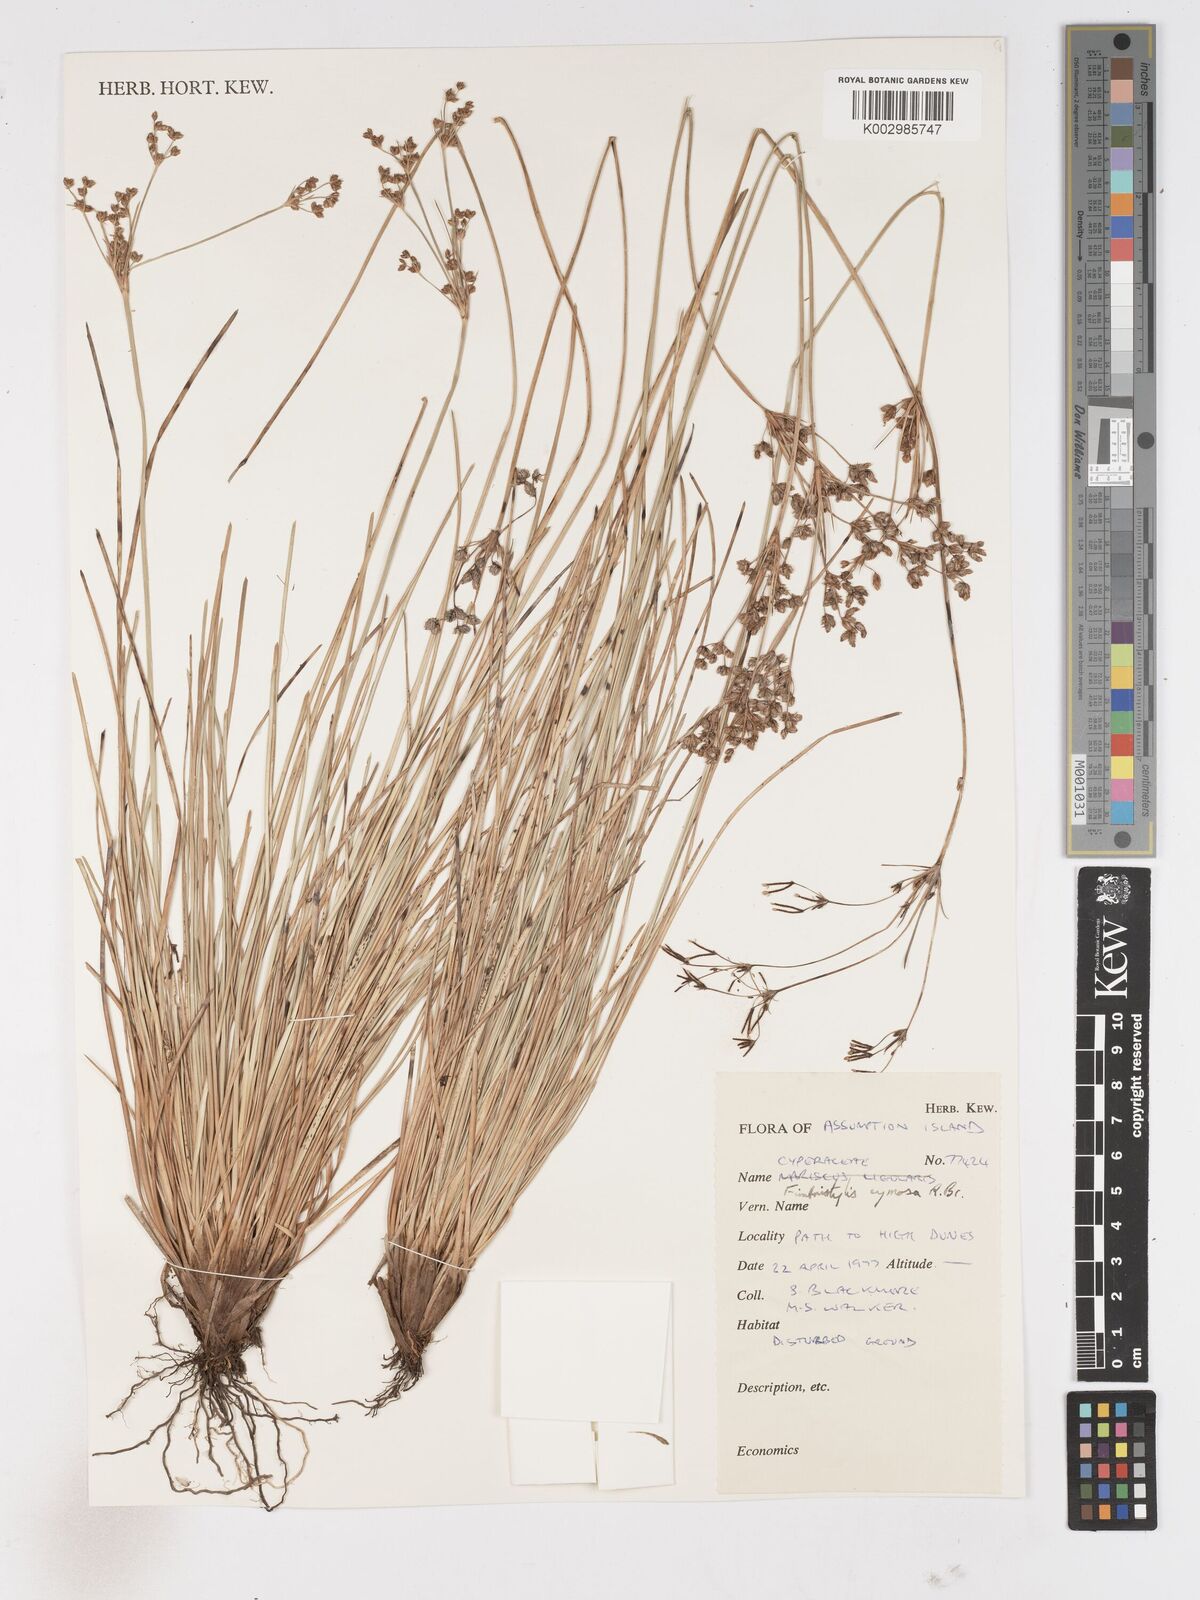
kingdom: Plantae
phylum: Tracheophyta
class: Liliopsida
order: Poales
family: Cyperaceae
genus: Fimbristylis
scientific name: Fimbristylis cymosa
